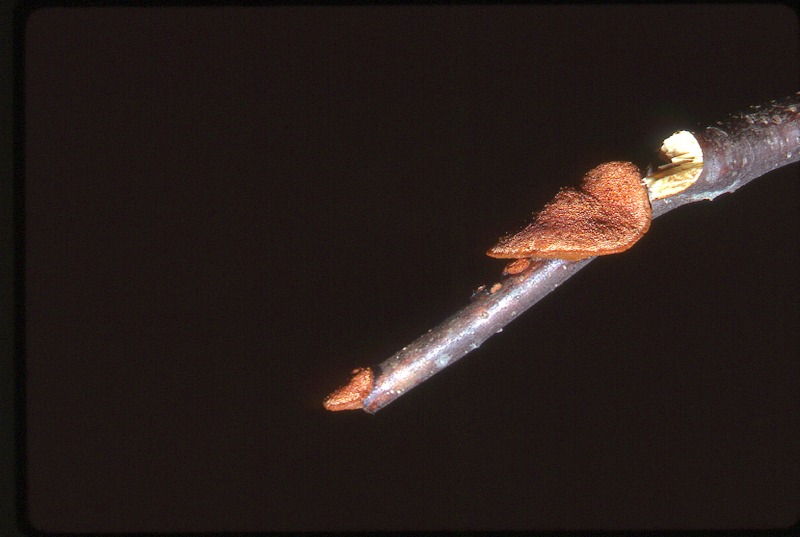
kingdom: Fungi
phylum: Basidiomycota
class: Agaricomycetes
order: Polyporales
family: Polyporaceae
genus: Trametes
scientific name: Trametes cinnabarina
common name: Northern cinnabar polypore
